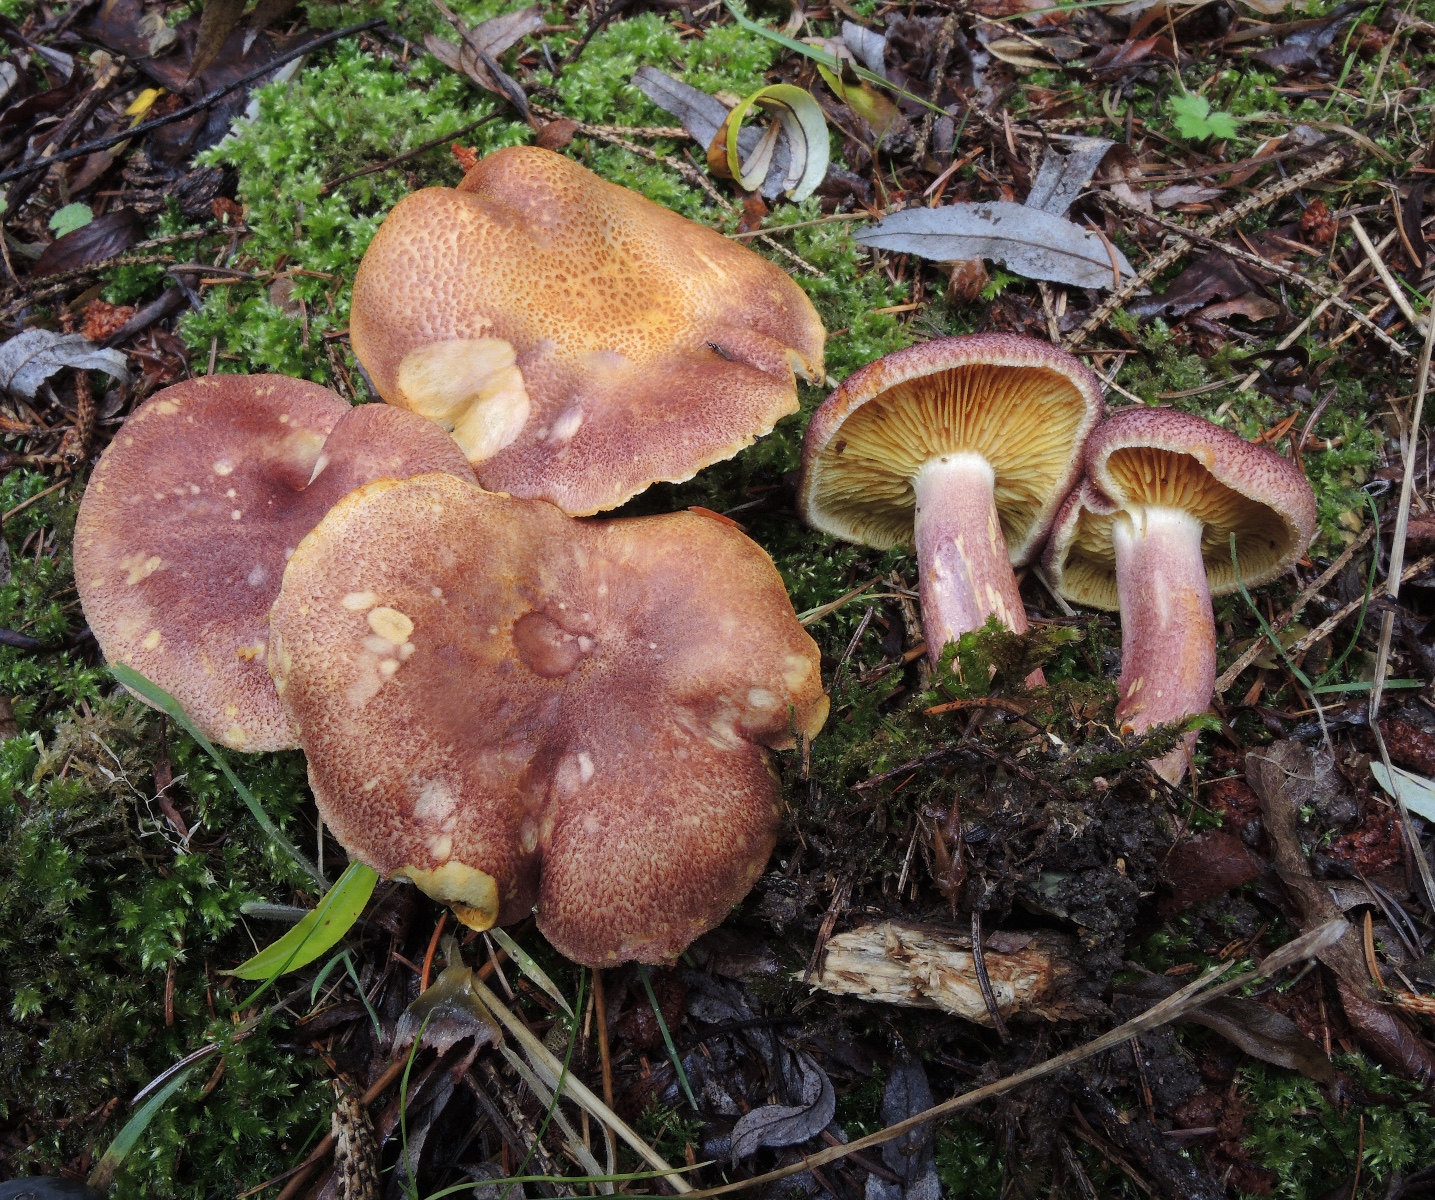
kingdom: Fungi
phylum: Basidiomycota
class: Agaricomycetes
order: Agaricales
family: Tricholomataceae
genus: Tricholomopsis
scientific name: Tricholomopsis rutilans
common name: purpur-væbnerhat
